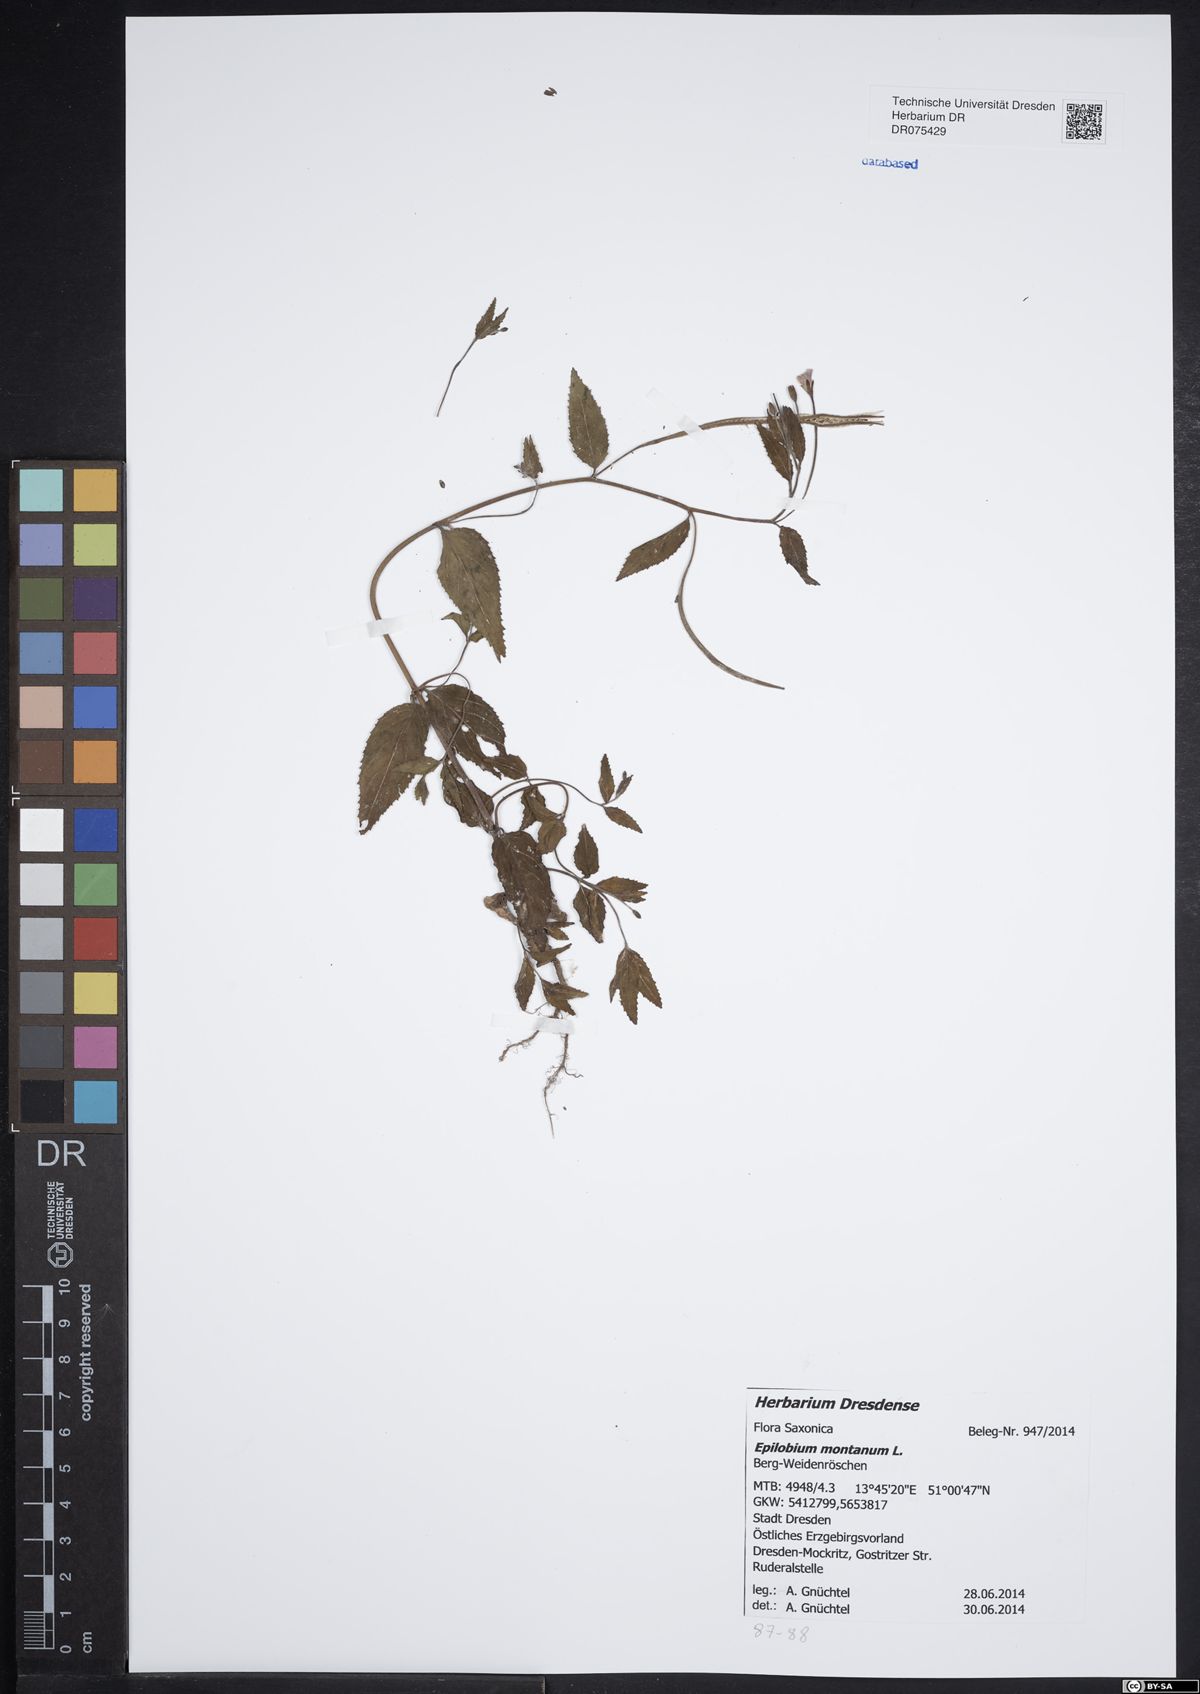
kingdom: Plantae
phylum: Tracheophyta
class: Magnoliopsida
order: Myrtales
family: Onagraceae
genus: Epilobium
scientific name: Epilobium montanum
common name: Broad-leaved willowherb
